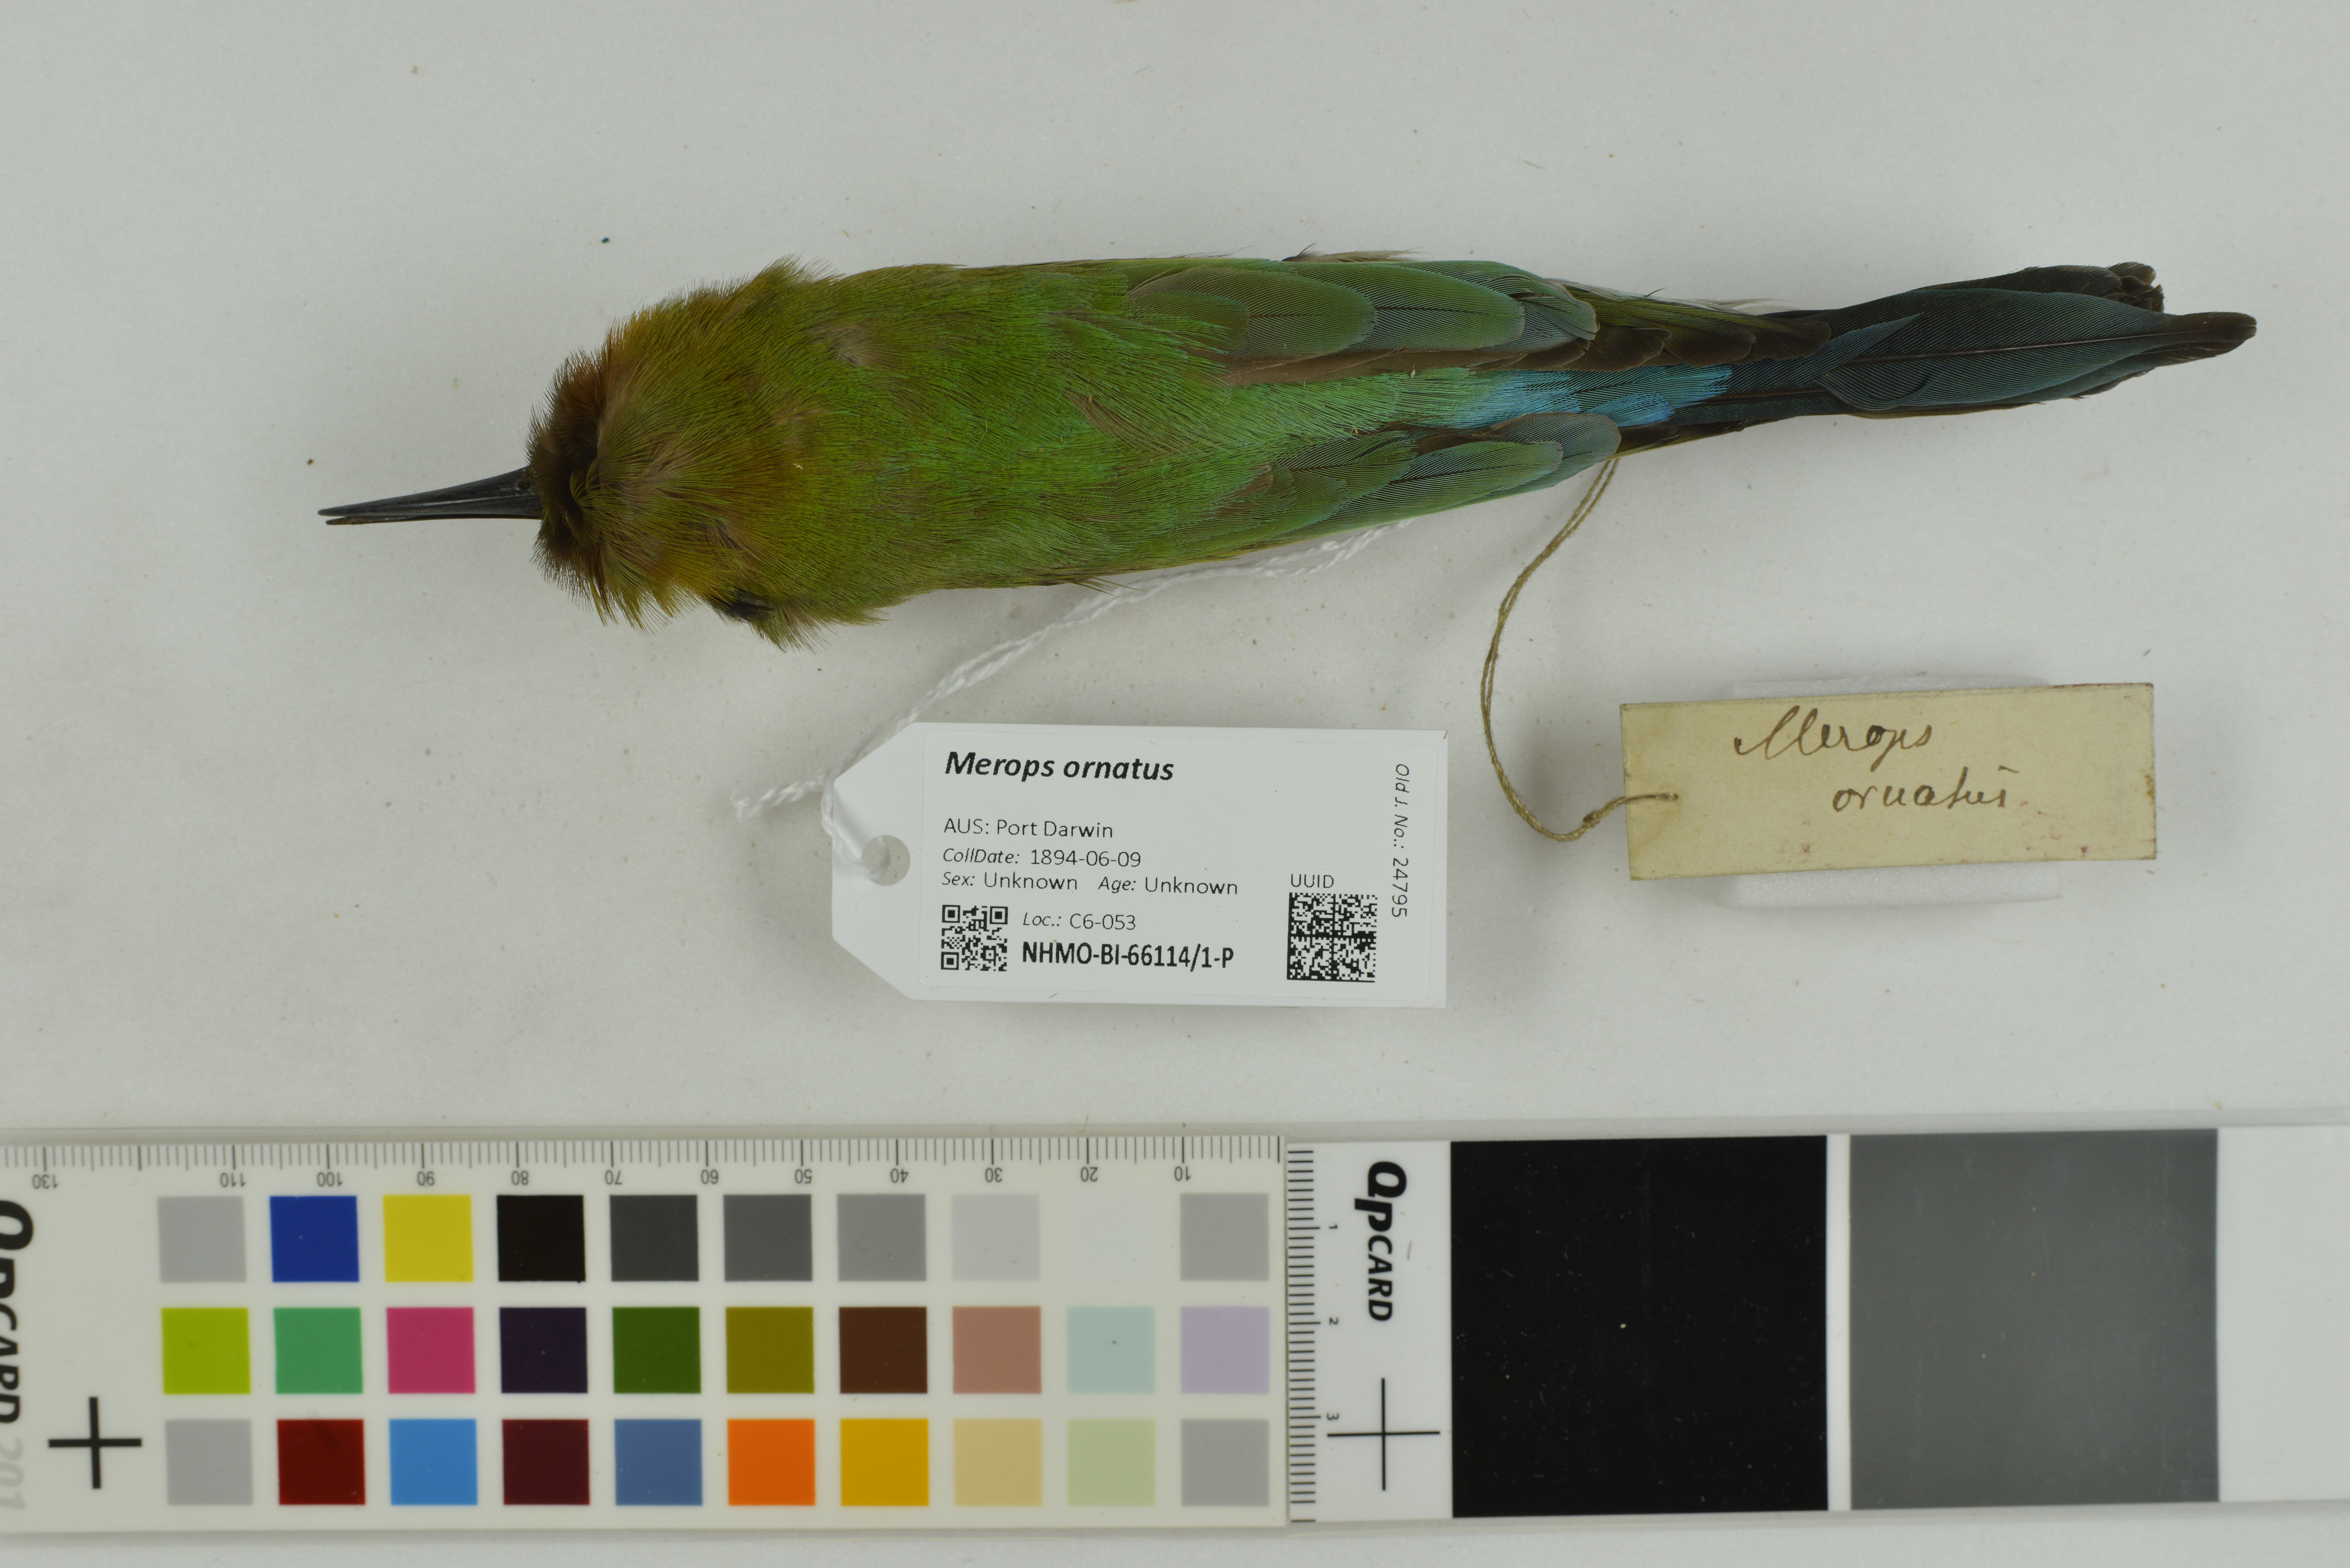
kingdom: Animalia
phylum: Chordata
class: Aves
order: Coraciiformes
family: Meropidae
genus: Merops
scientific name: Merops ornatus
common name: Rainbow bee-eater
